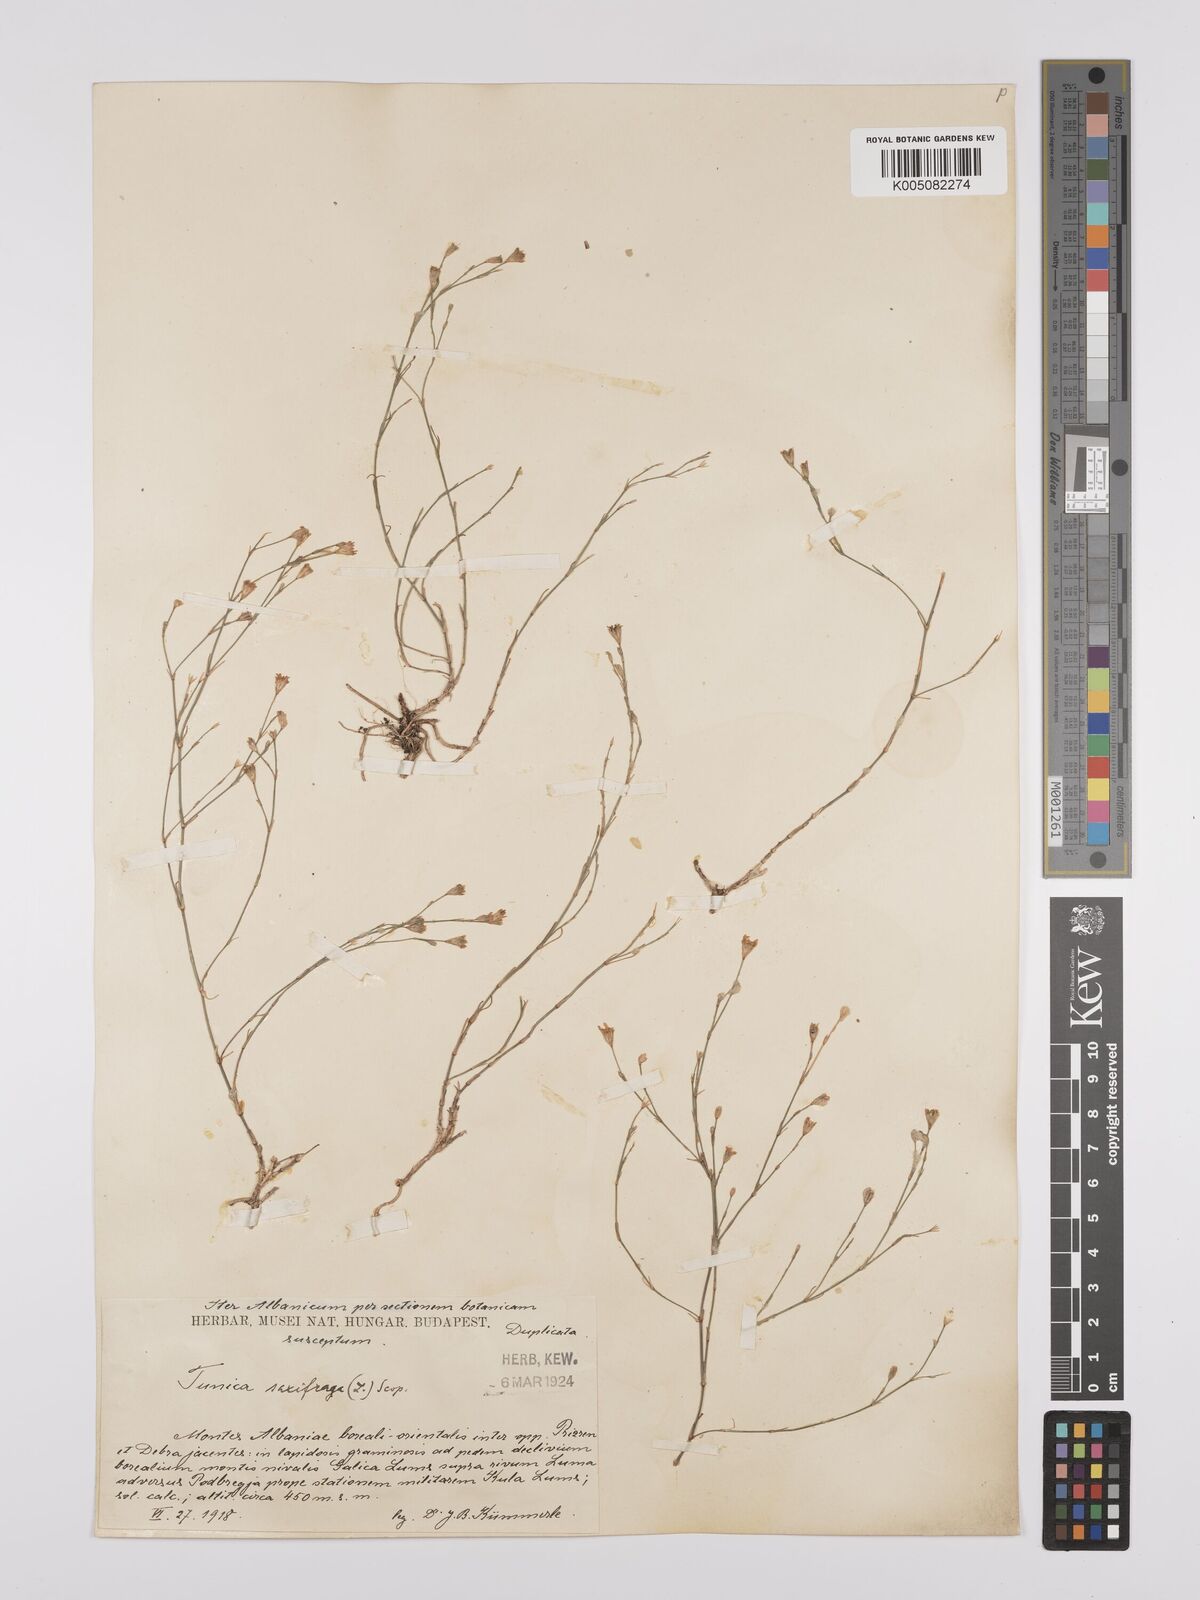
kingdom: Plantae
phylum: Tracheophyta
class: Magnoliopsida
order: Caryophyllales
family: Caryophyllaceae
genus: Petrorhagia
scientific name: Petrorhagia saxifraga
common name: Tunicflower
